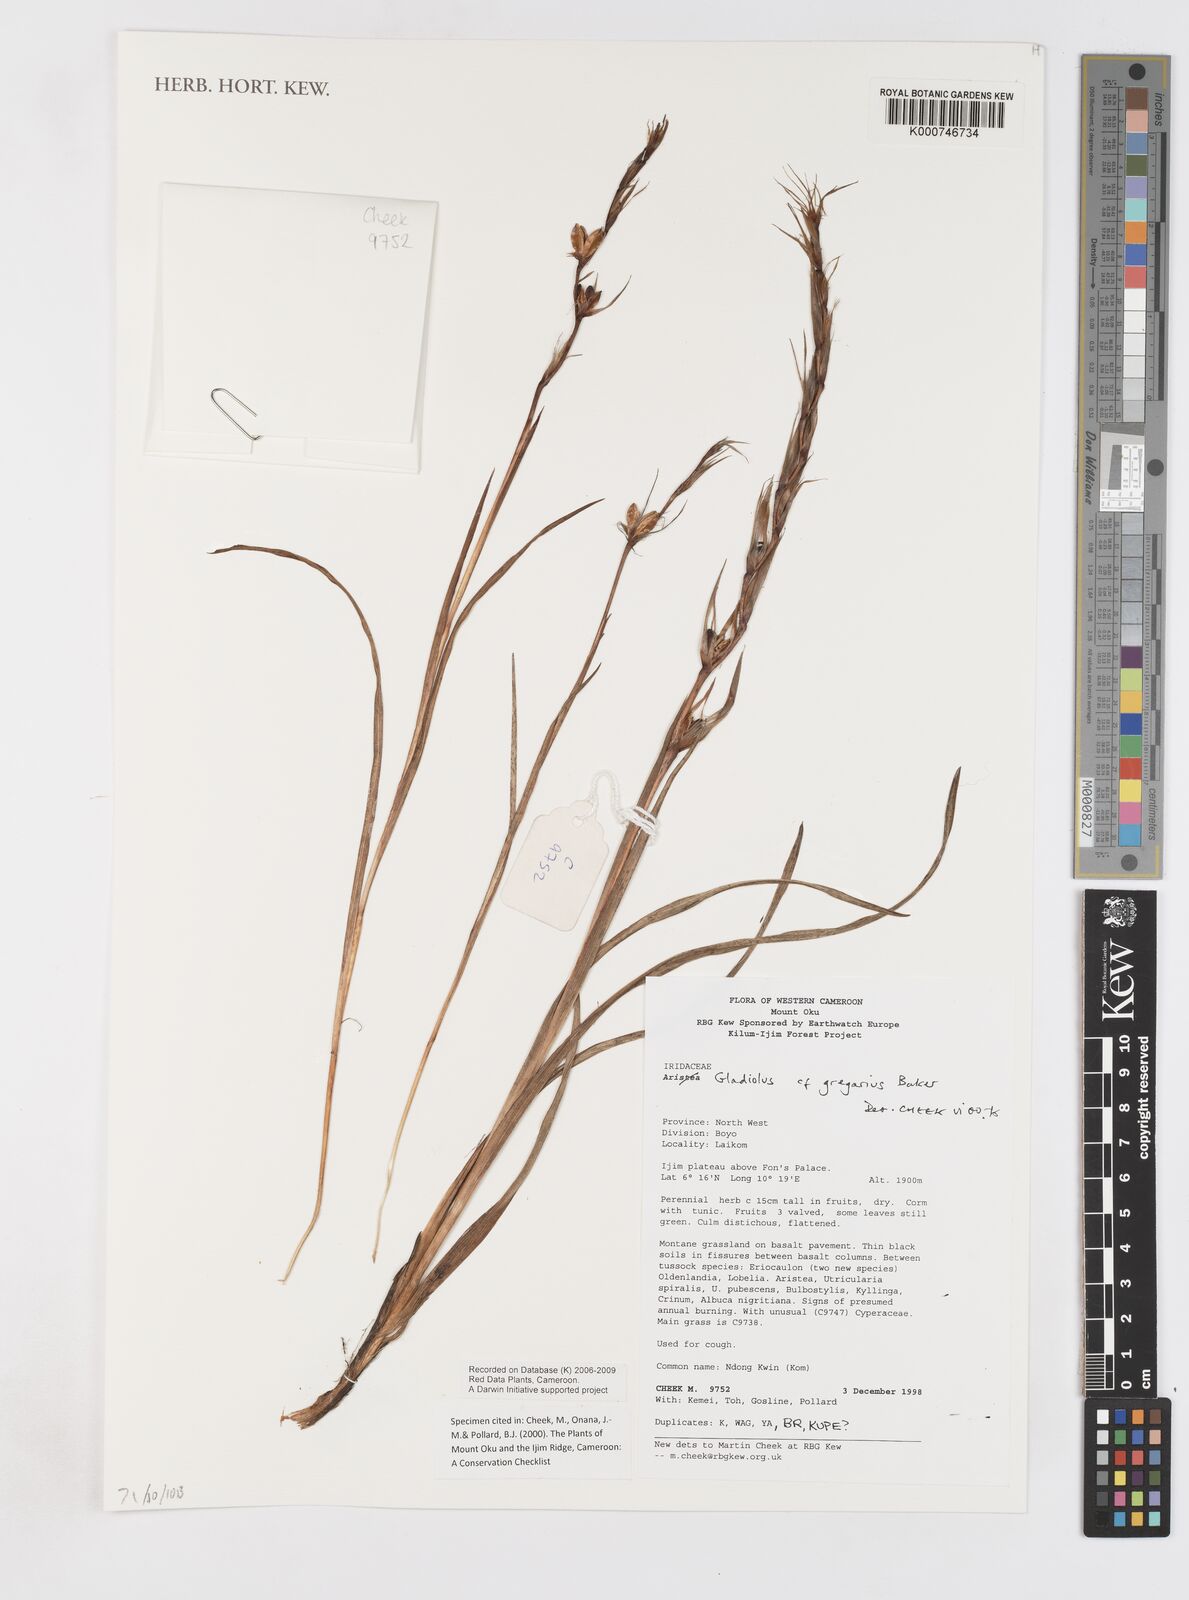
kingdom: Plantae
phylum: Tracheophyta
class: Liliopsida
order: Asparagales
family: Iridaceae
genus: Gladiolus
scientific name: Gladiolus gregarius
